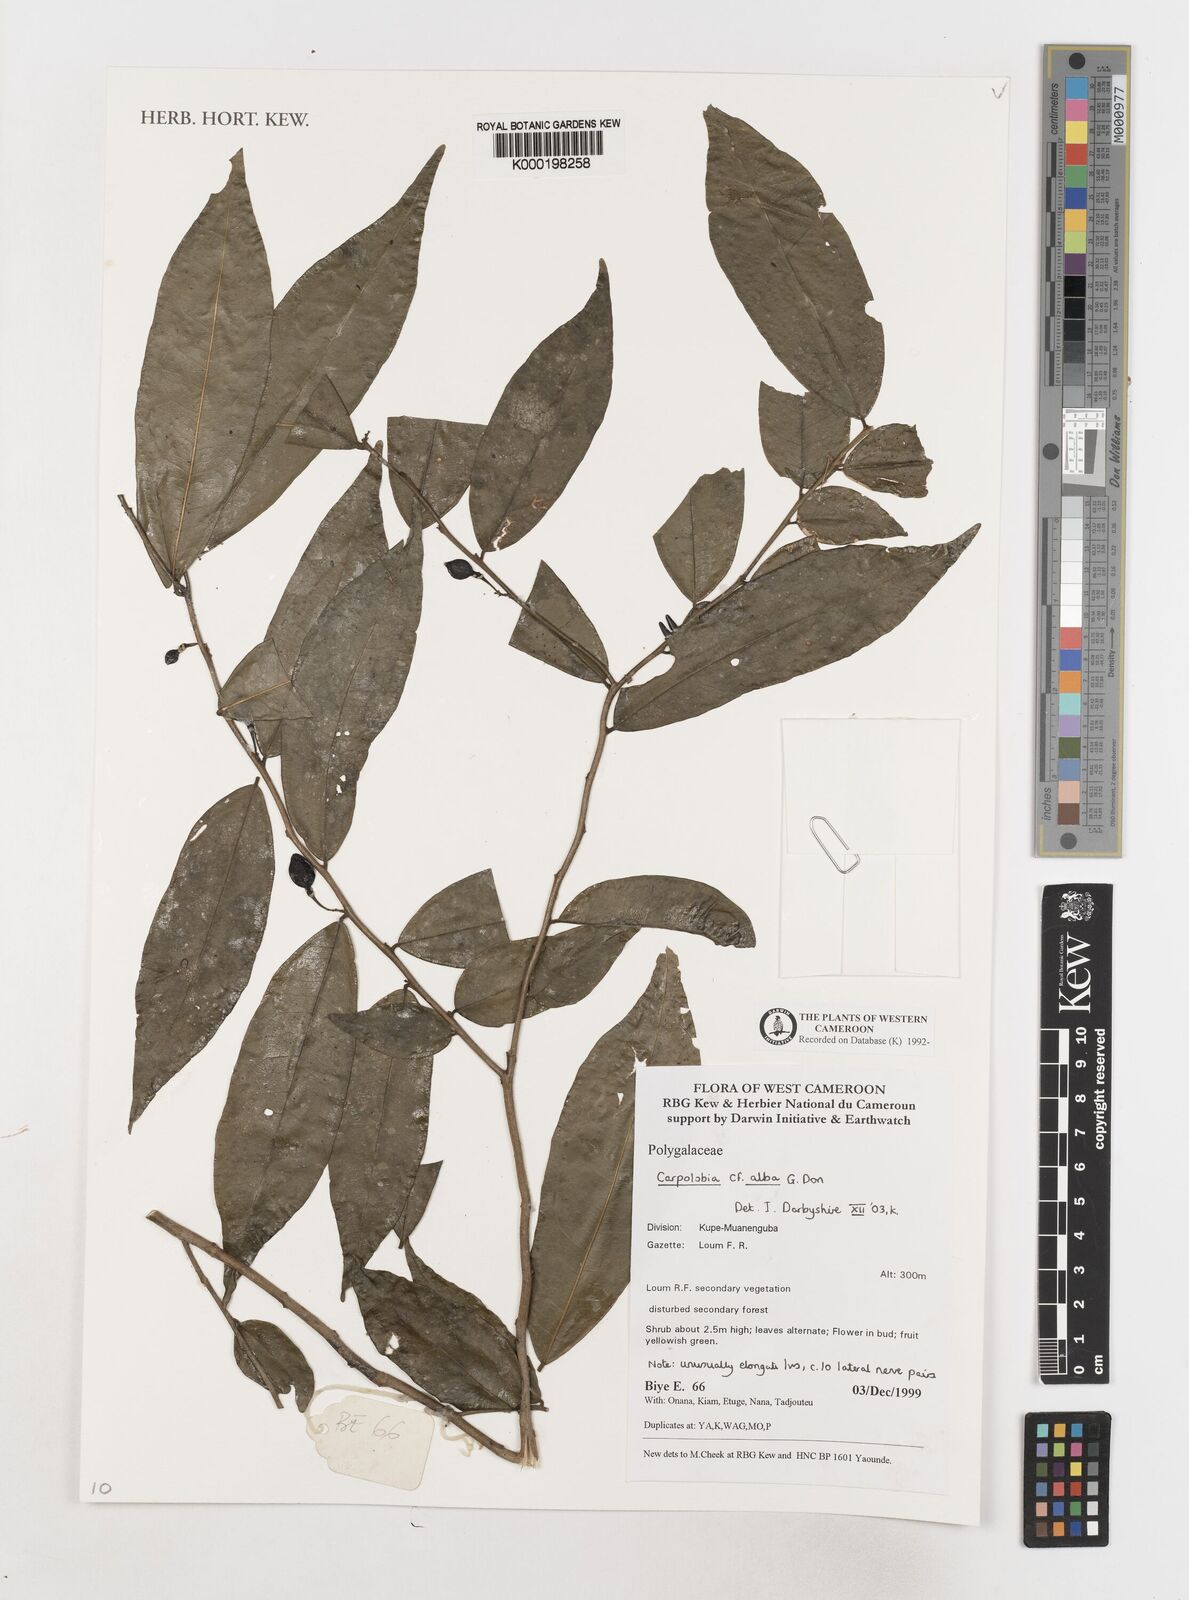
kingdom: Plantae
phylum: Tracheophyta
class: Magnoliopsida
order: Fabales
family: Polygalaceae
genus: Carpolobia
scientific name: Carpolobia alba
